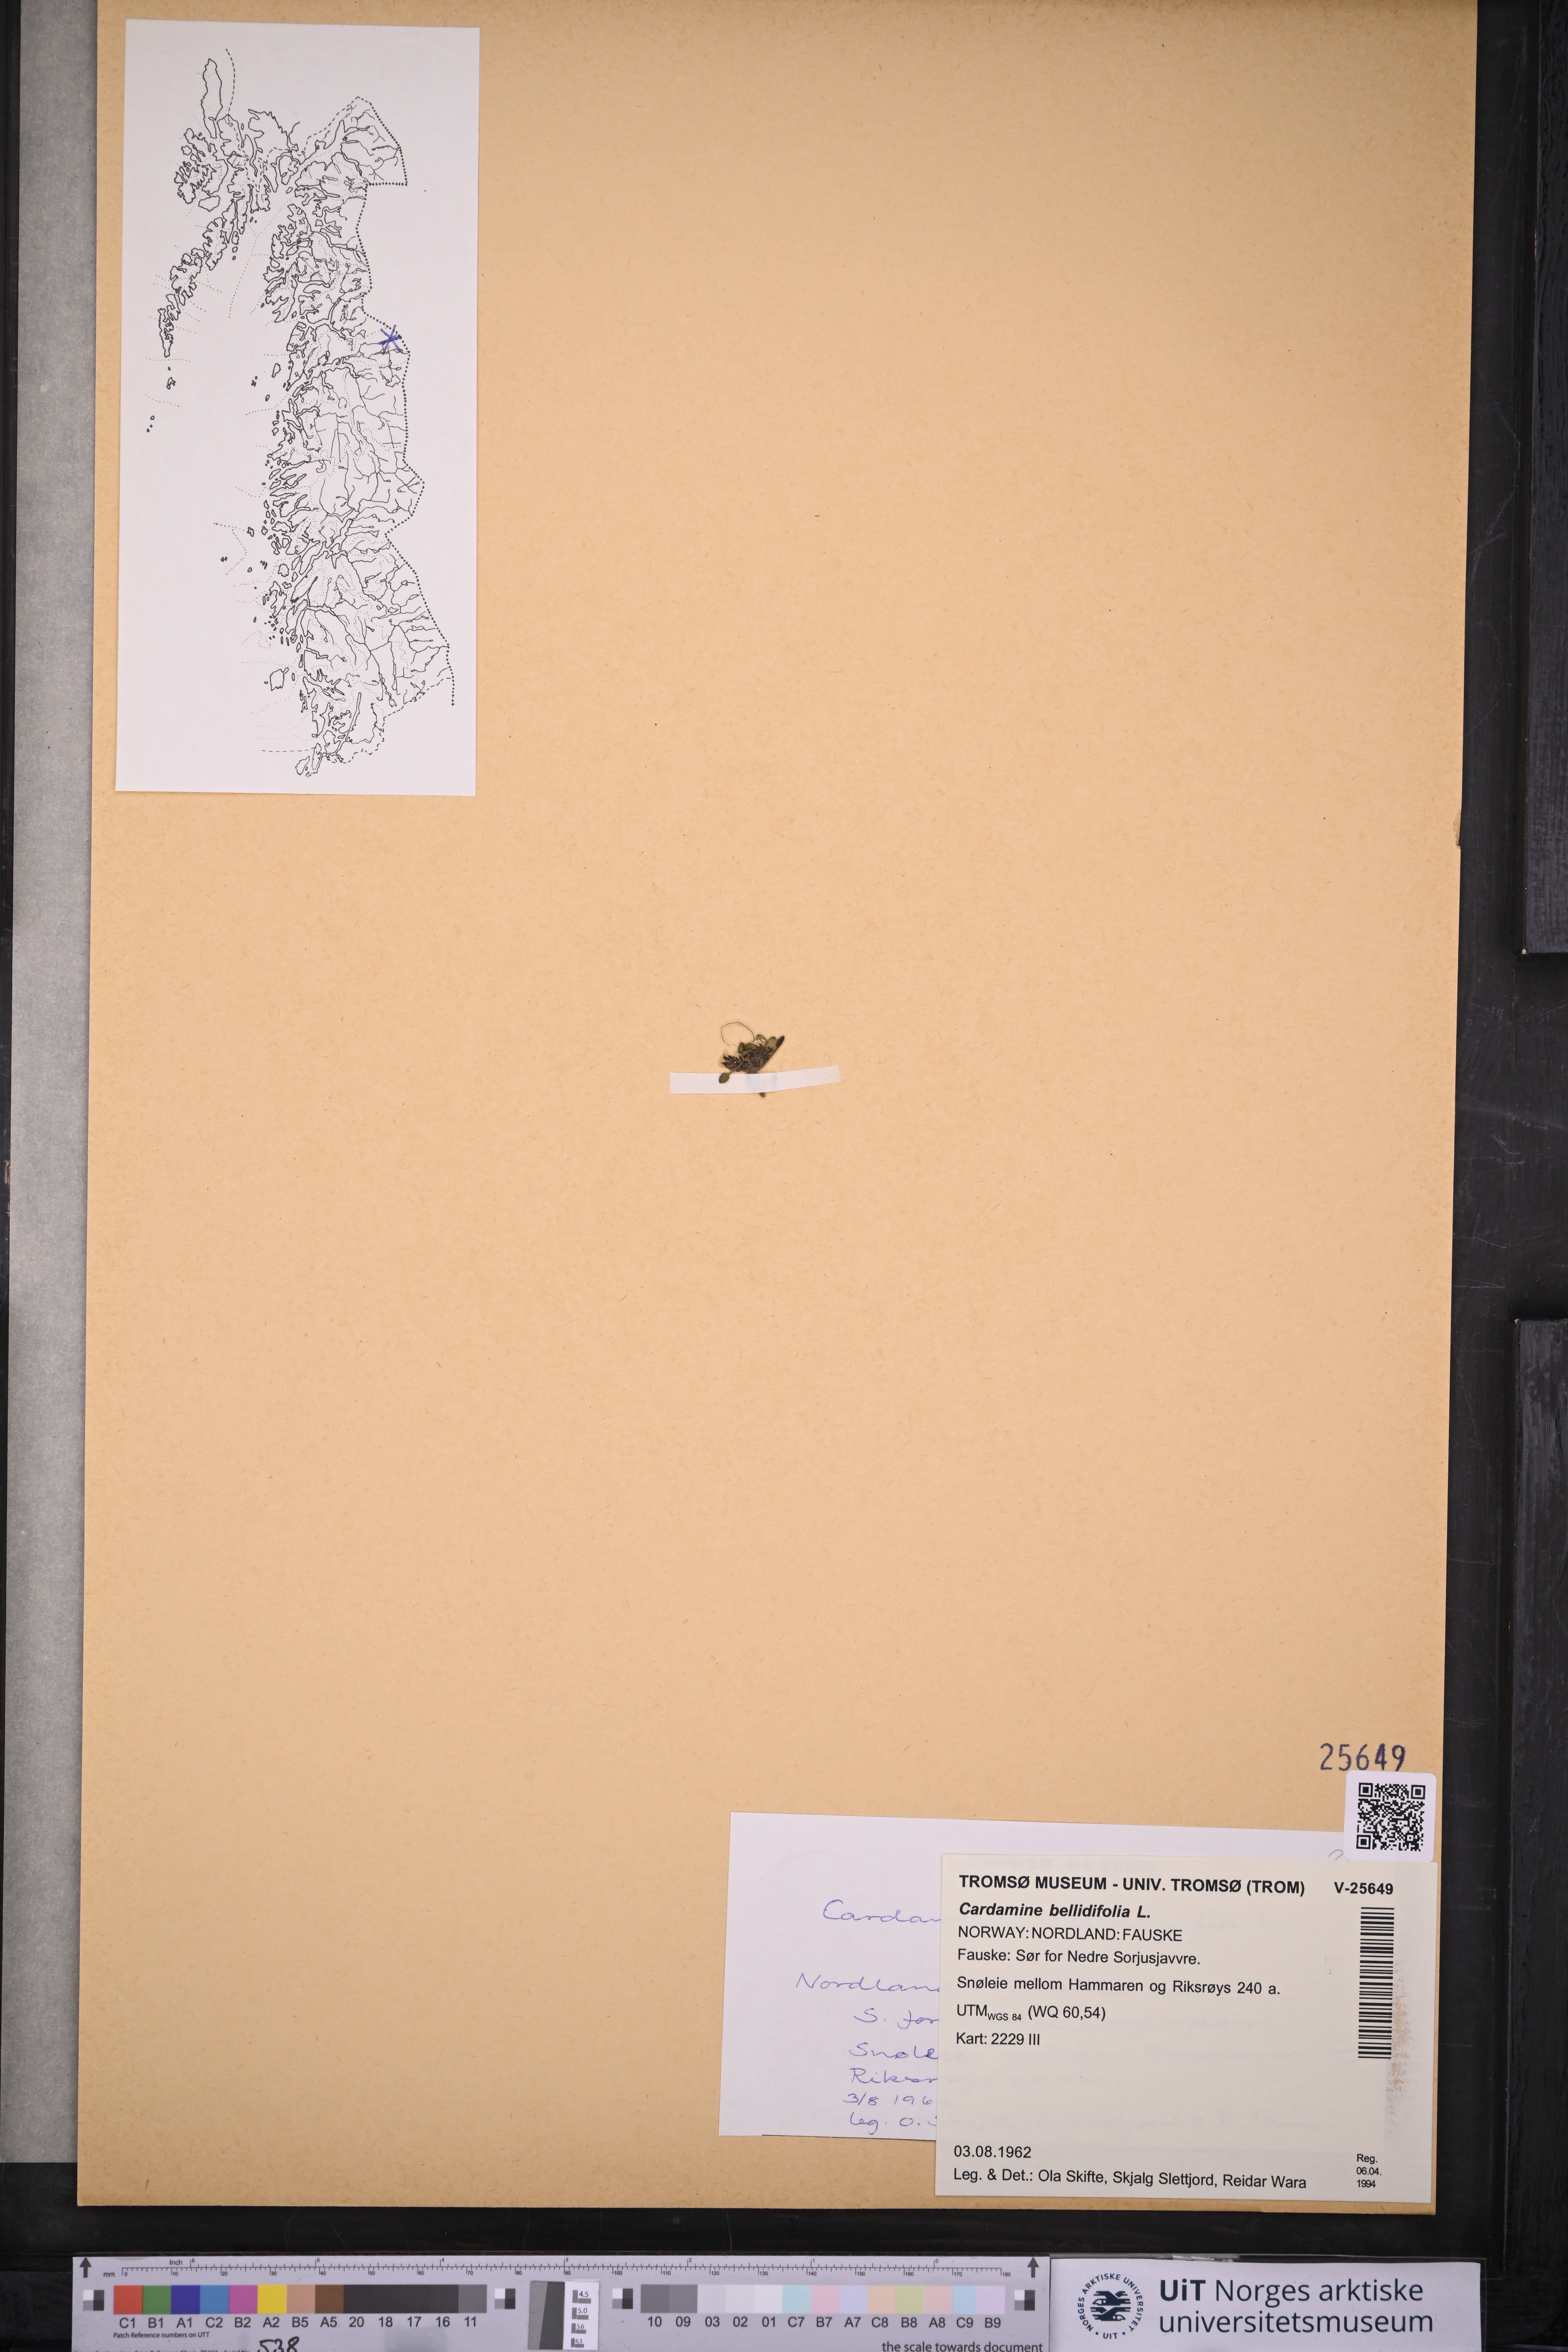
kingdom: Plantae
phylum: Tracheophyta
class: Magnoliopsida
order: Brassicales
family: Brassicaceae
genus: Cardamine
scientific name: Cardamine bellidifolia
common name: Alpine bittercress
